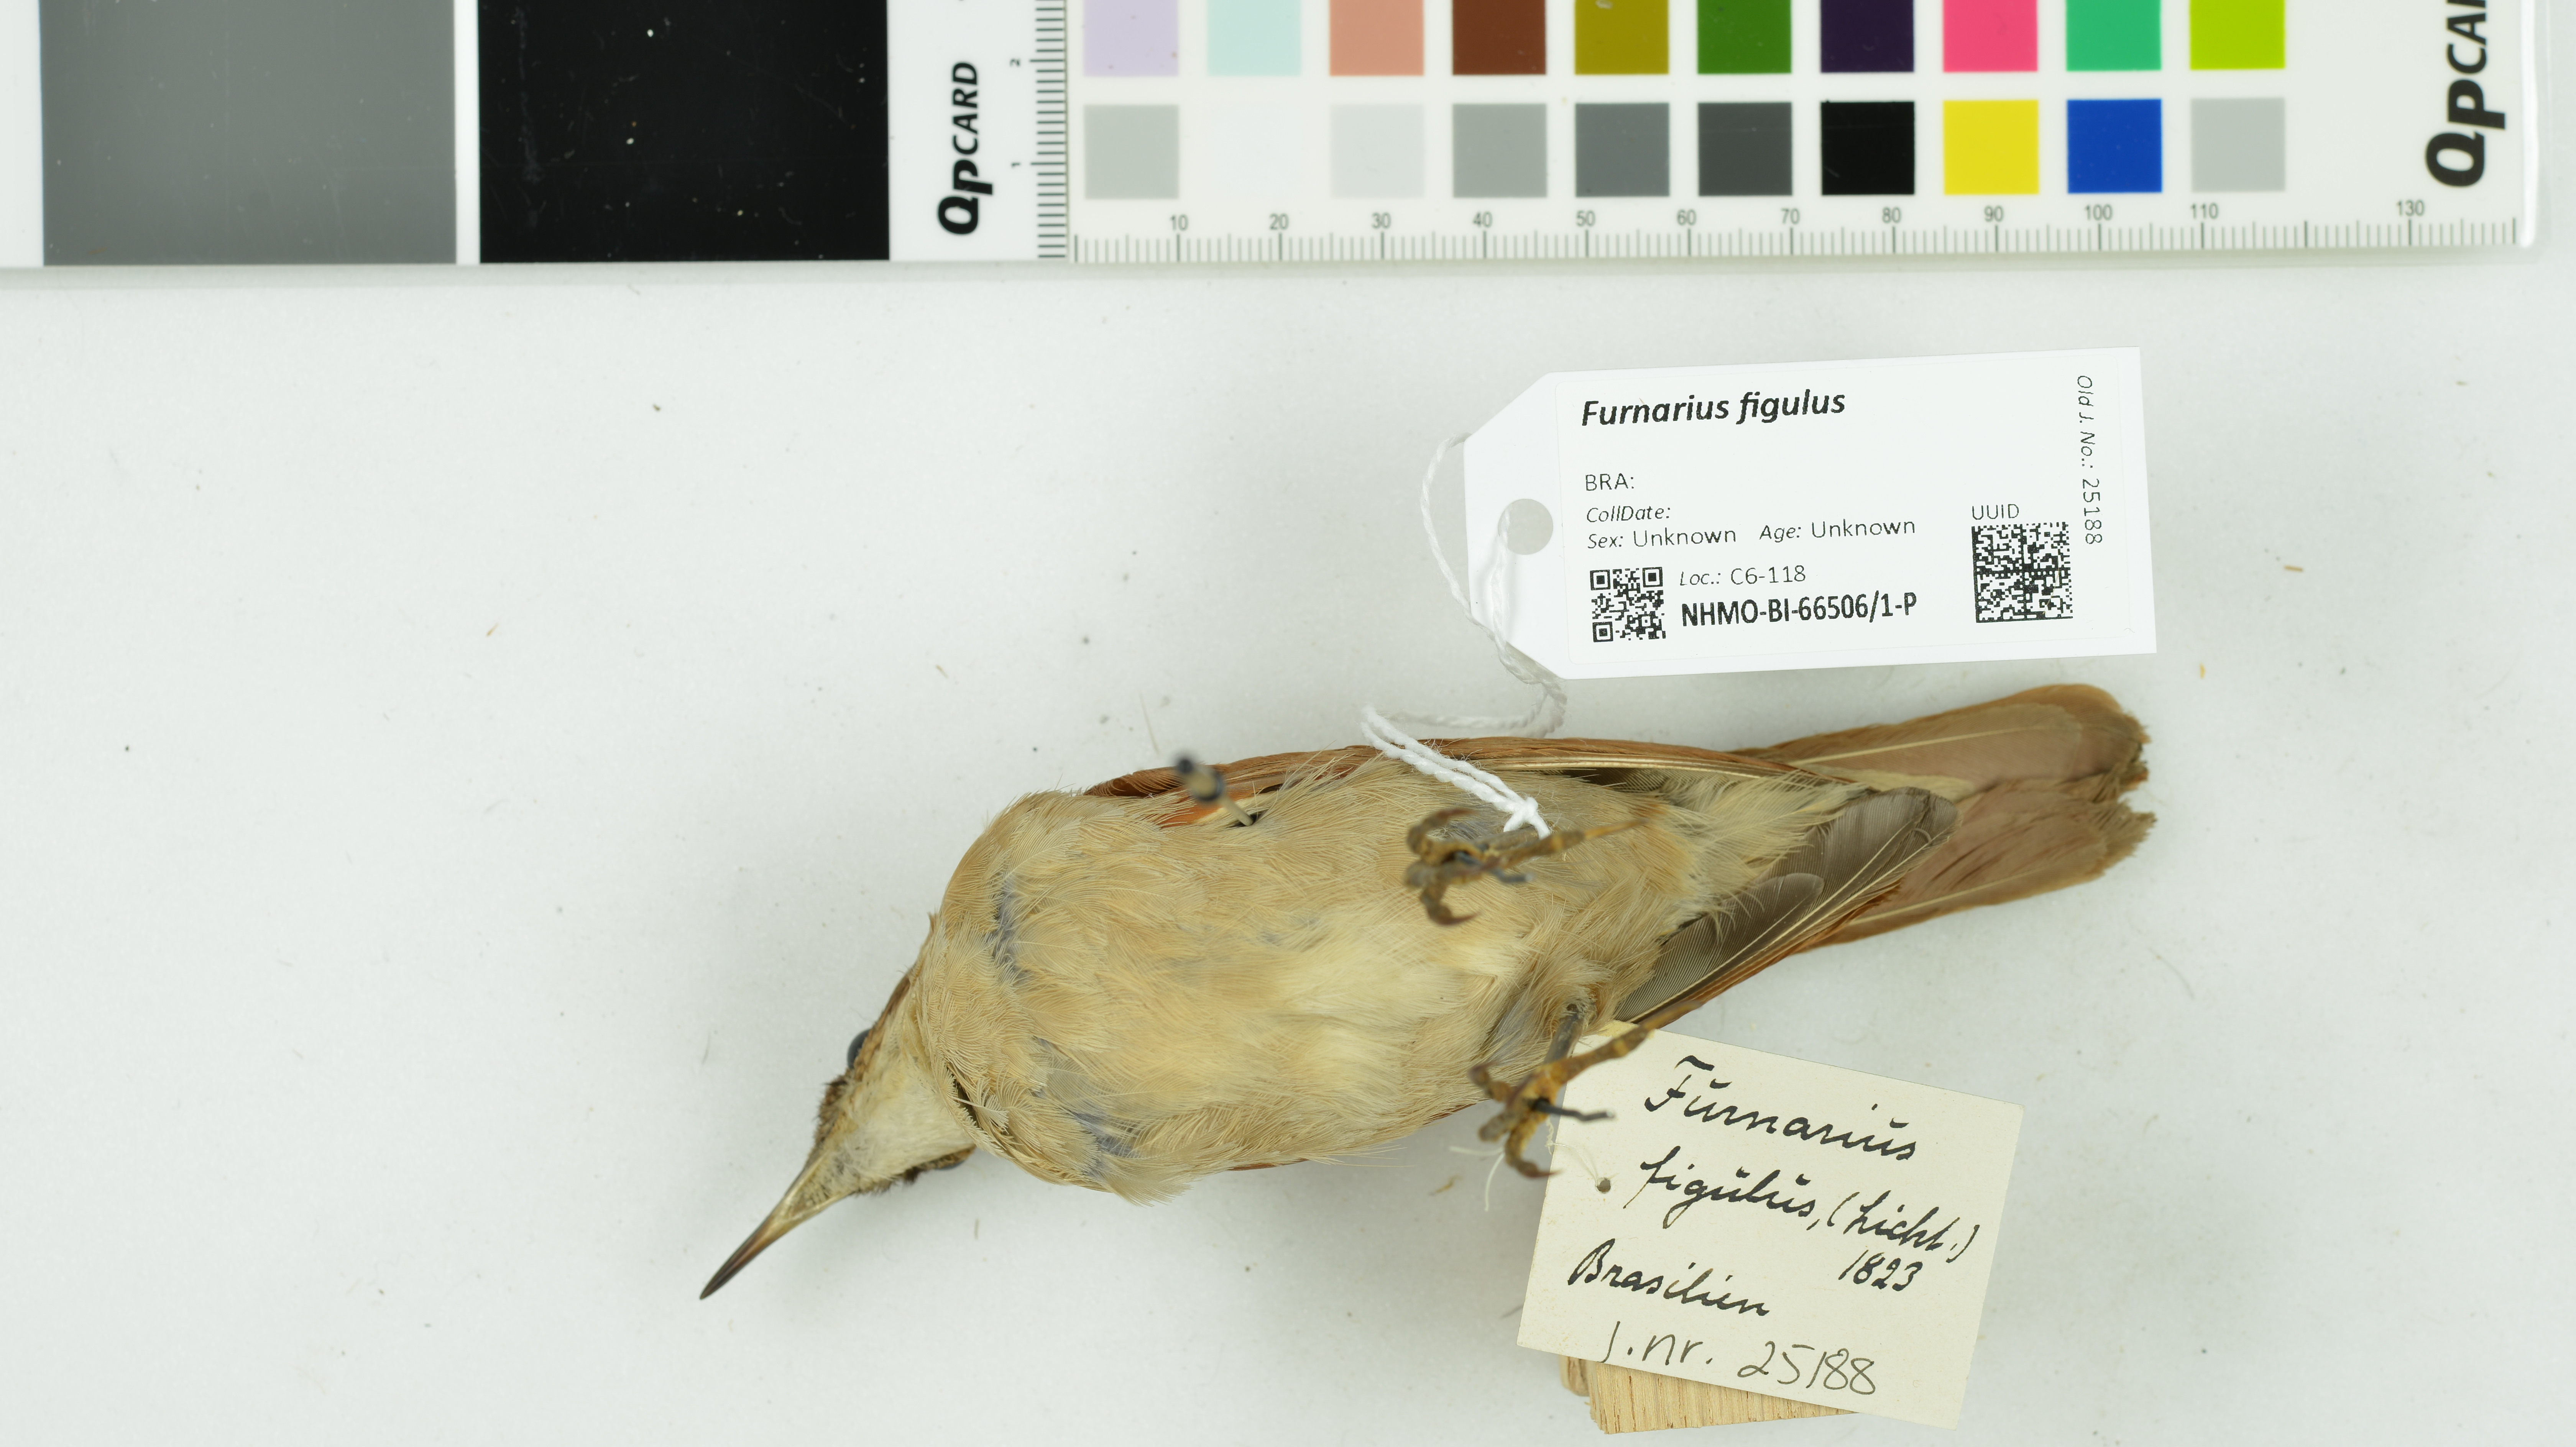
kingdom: Animalia
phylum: Chordata
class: Aves
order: Passeriformes
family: Furnariidae
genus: Furnarius
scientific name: Furnarius figulus
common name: Band-tailed hornero
